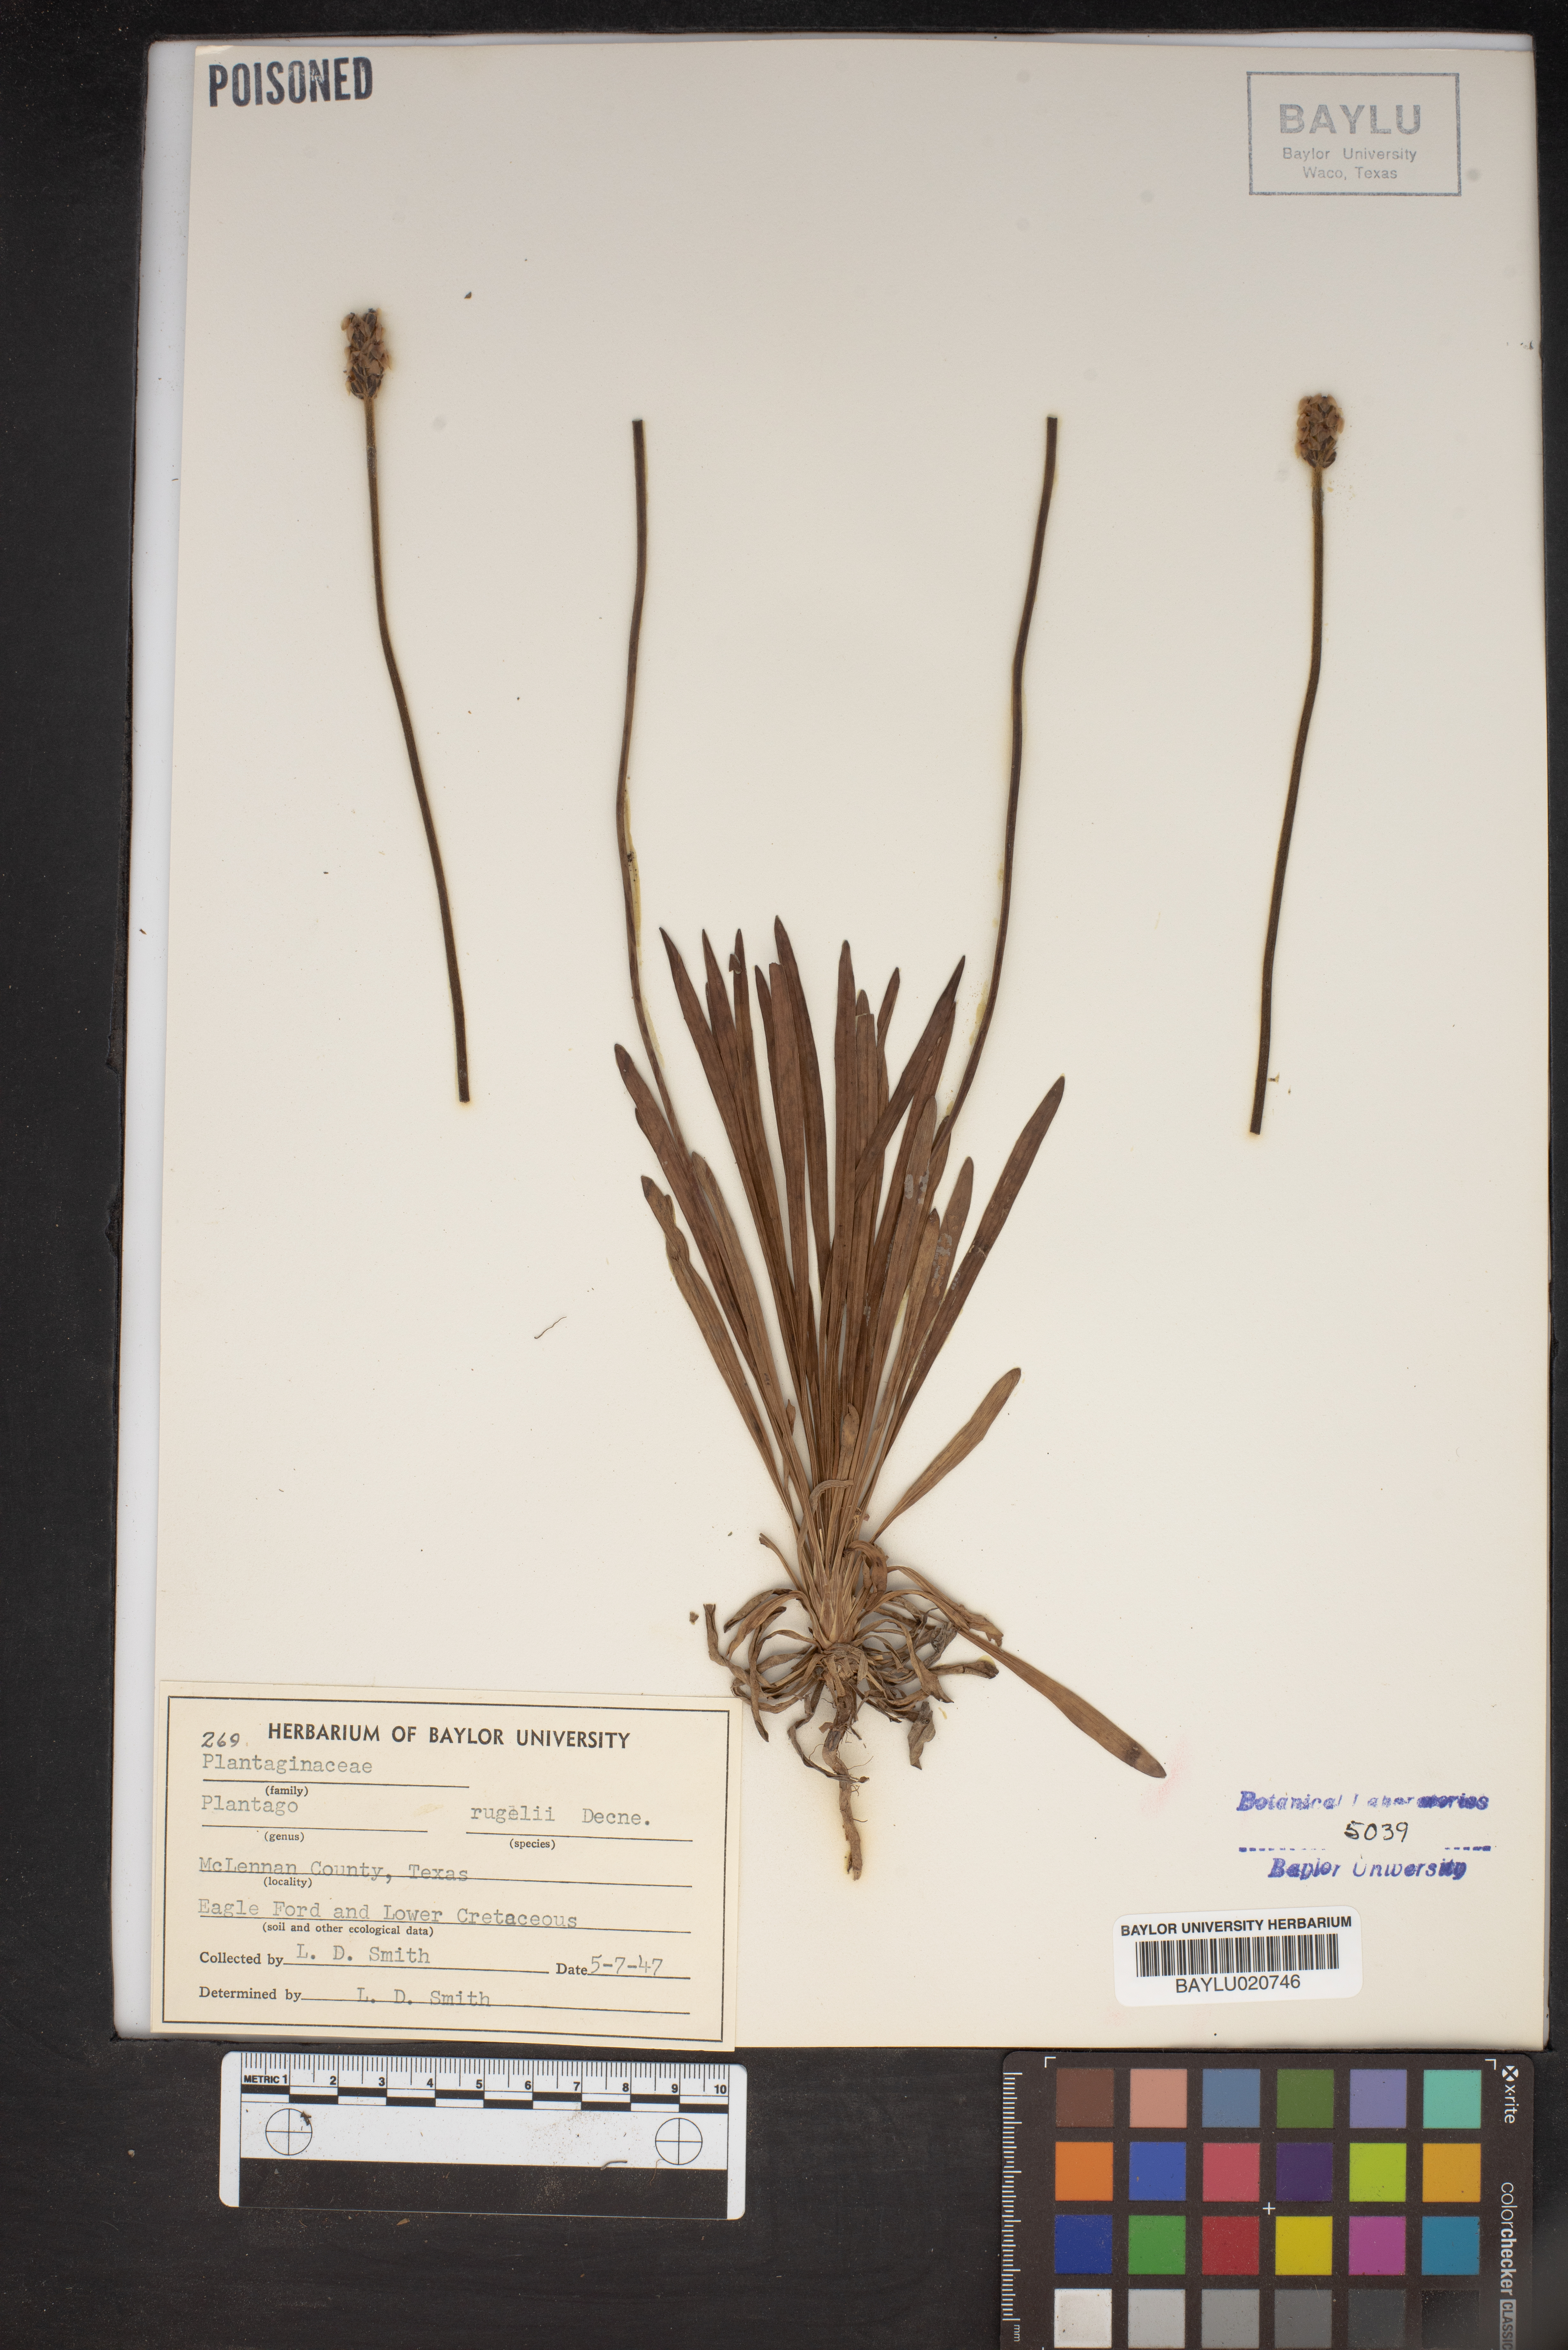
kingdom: Plantae
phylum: Tracheophyta
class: Magnoliopsida
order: Lamiales
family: Plantaginaceae
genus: Plantago
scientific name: Plantago rugelii
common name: American plantain
